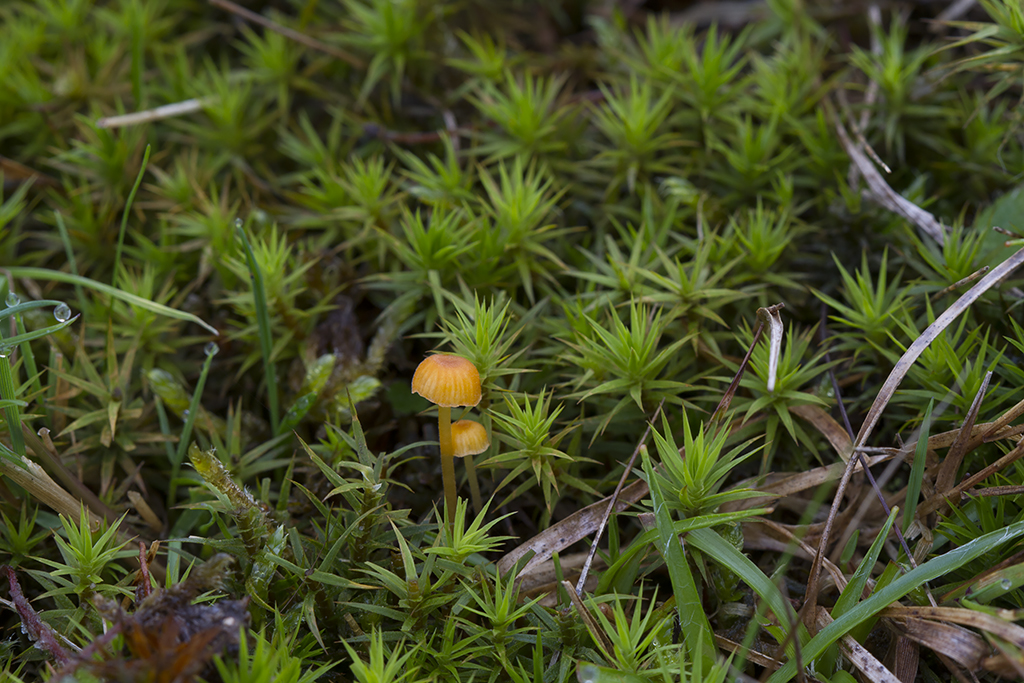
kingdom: Fungi
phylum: Basidiomycota
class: Agaricomycetes
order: Hymenochaetales
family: Rickenellaceae
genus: Rickenella
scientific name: Rickenella fibula
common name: orange mosnavlehat
